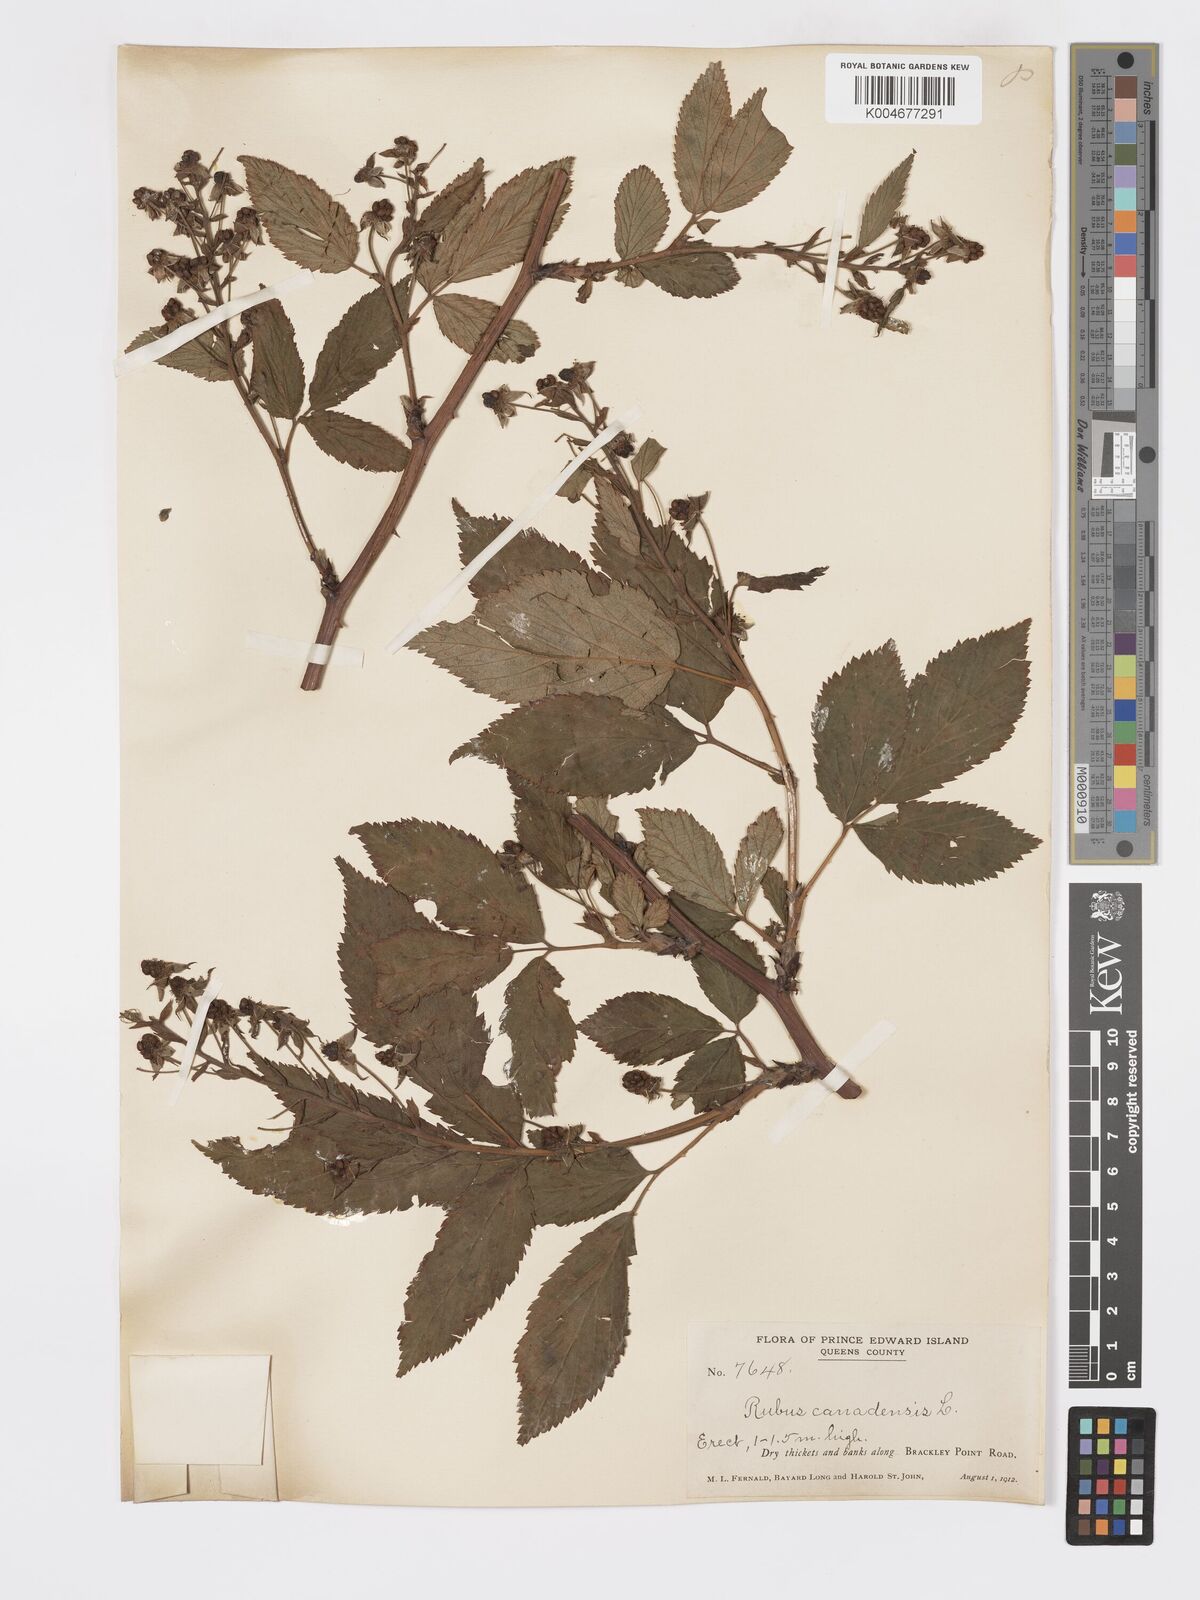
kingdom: Plantae
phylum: Tracheophyta
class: Magnoliopsida
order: Rosales
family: Rosaceae
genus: Rubus
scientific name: Rubus canadensis
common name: Smooth blackberry
